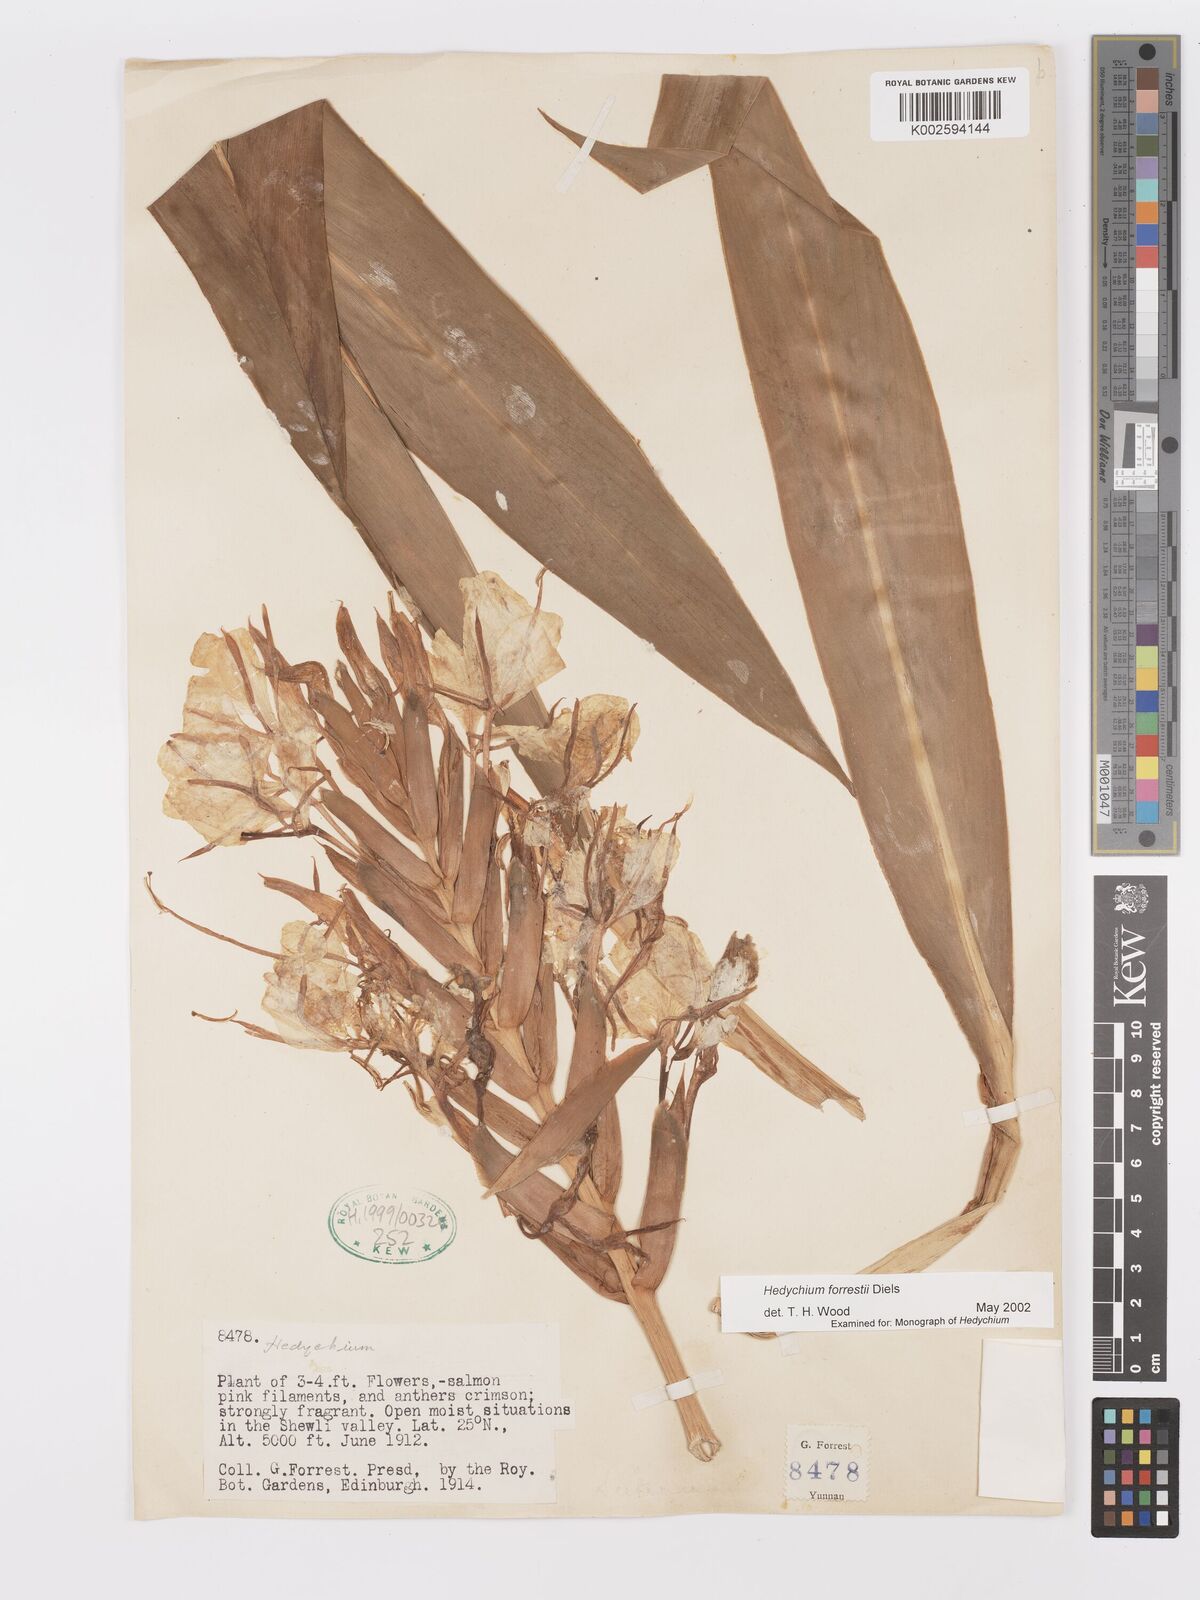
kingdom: Plantae
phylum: Tracheophyta
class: Liliopsida
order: Zingiberales
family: Zingiberaceae
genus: Hedychium
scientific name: Hedychium forrestii
